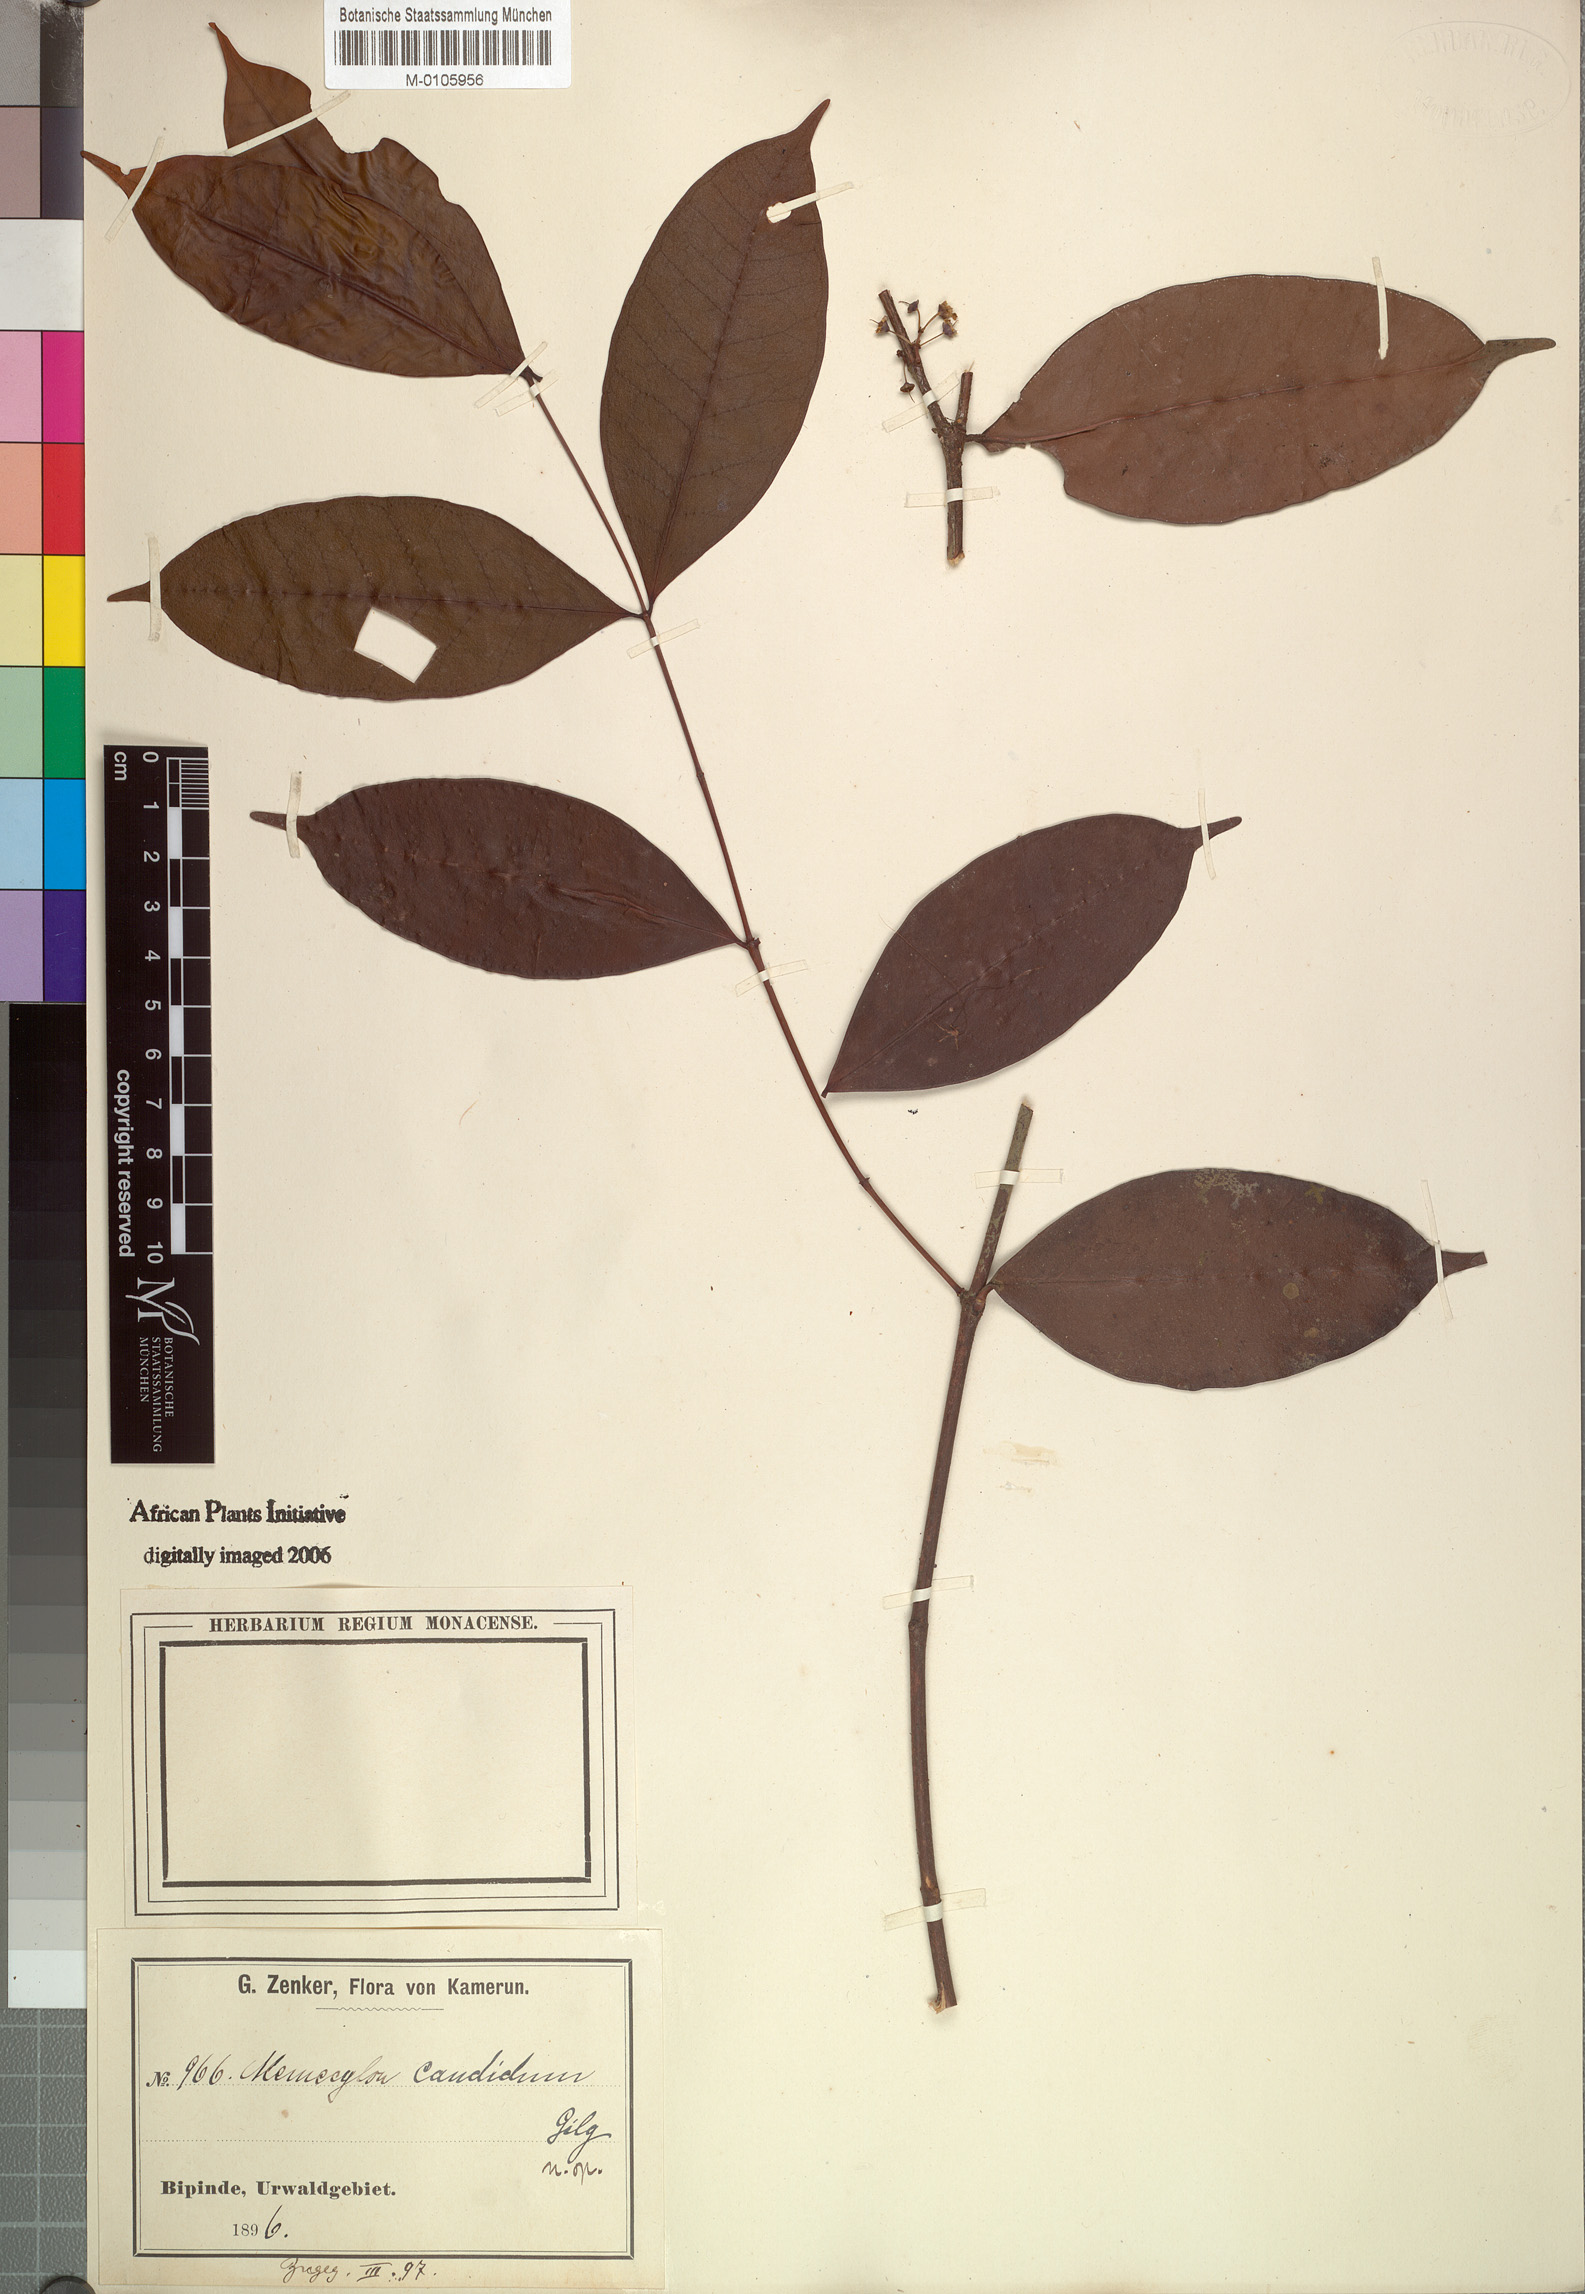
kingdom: Plantae
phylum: Tracheophyta
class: Magnoliopsida
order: Myrtales
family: Melastomataceae
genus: Memecylon
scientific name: Memecylon candidum
